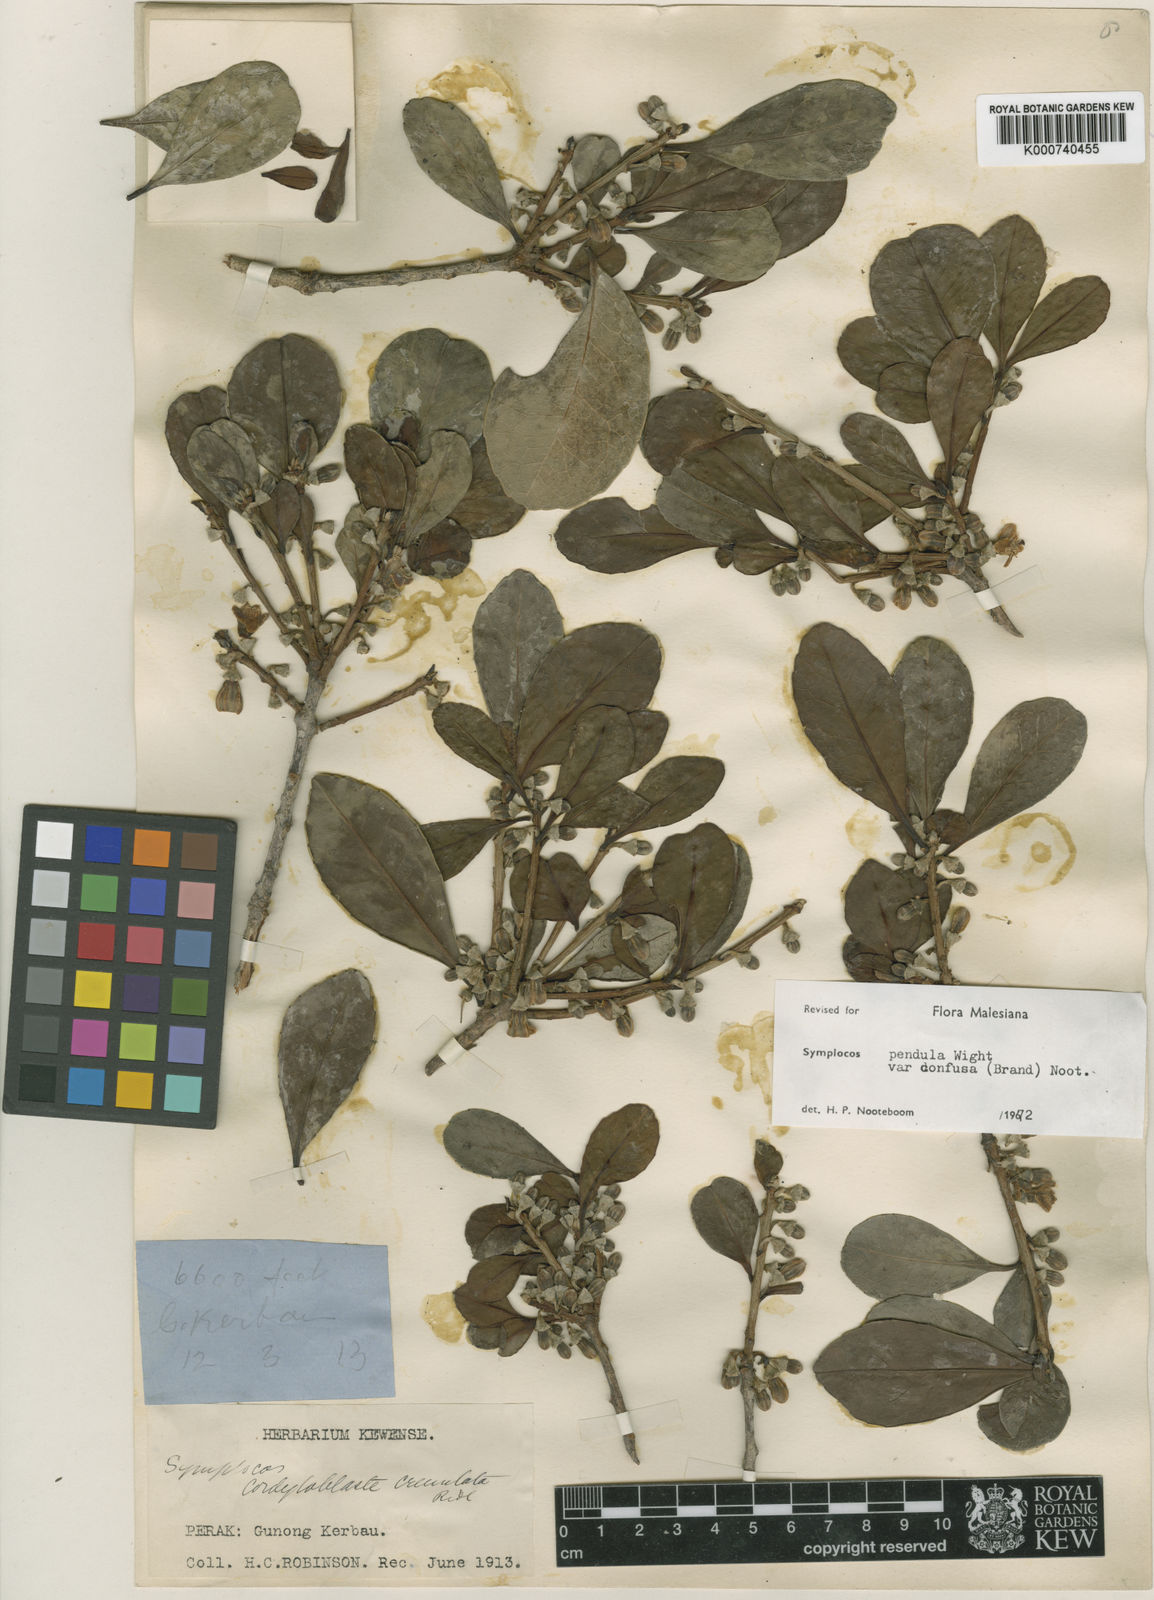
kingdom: Plantae
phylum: Tracheophyta
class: Magnoliopsida
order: Ericales
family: Symplocaceae
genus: Symplocos
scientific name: Symplocos pendula
